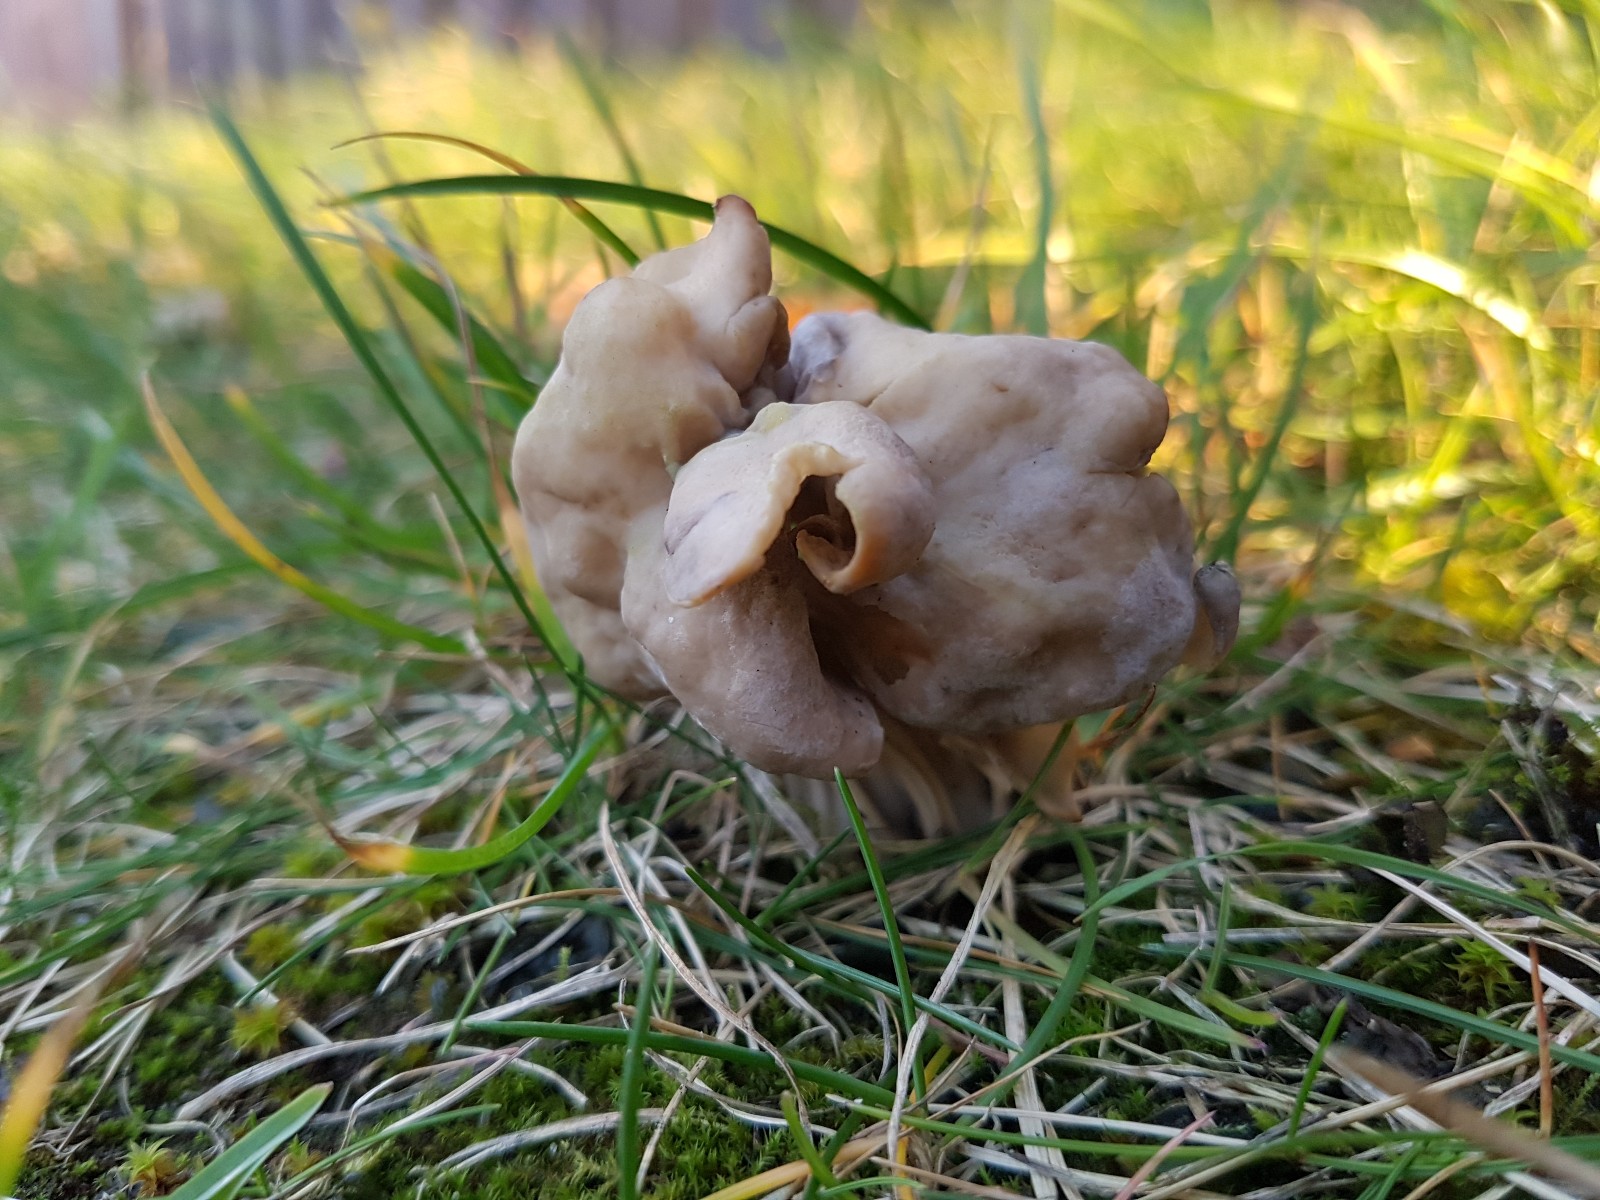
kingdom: Fungi
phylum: Ascomycota
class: Pezizomycetes
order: Pezizales
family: Helvellaceae
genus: Helvella
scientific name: Helvella crispa
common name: kruset foldhat
